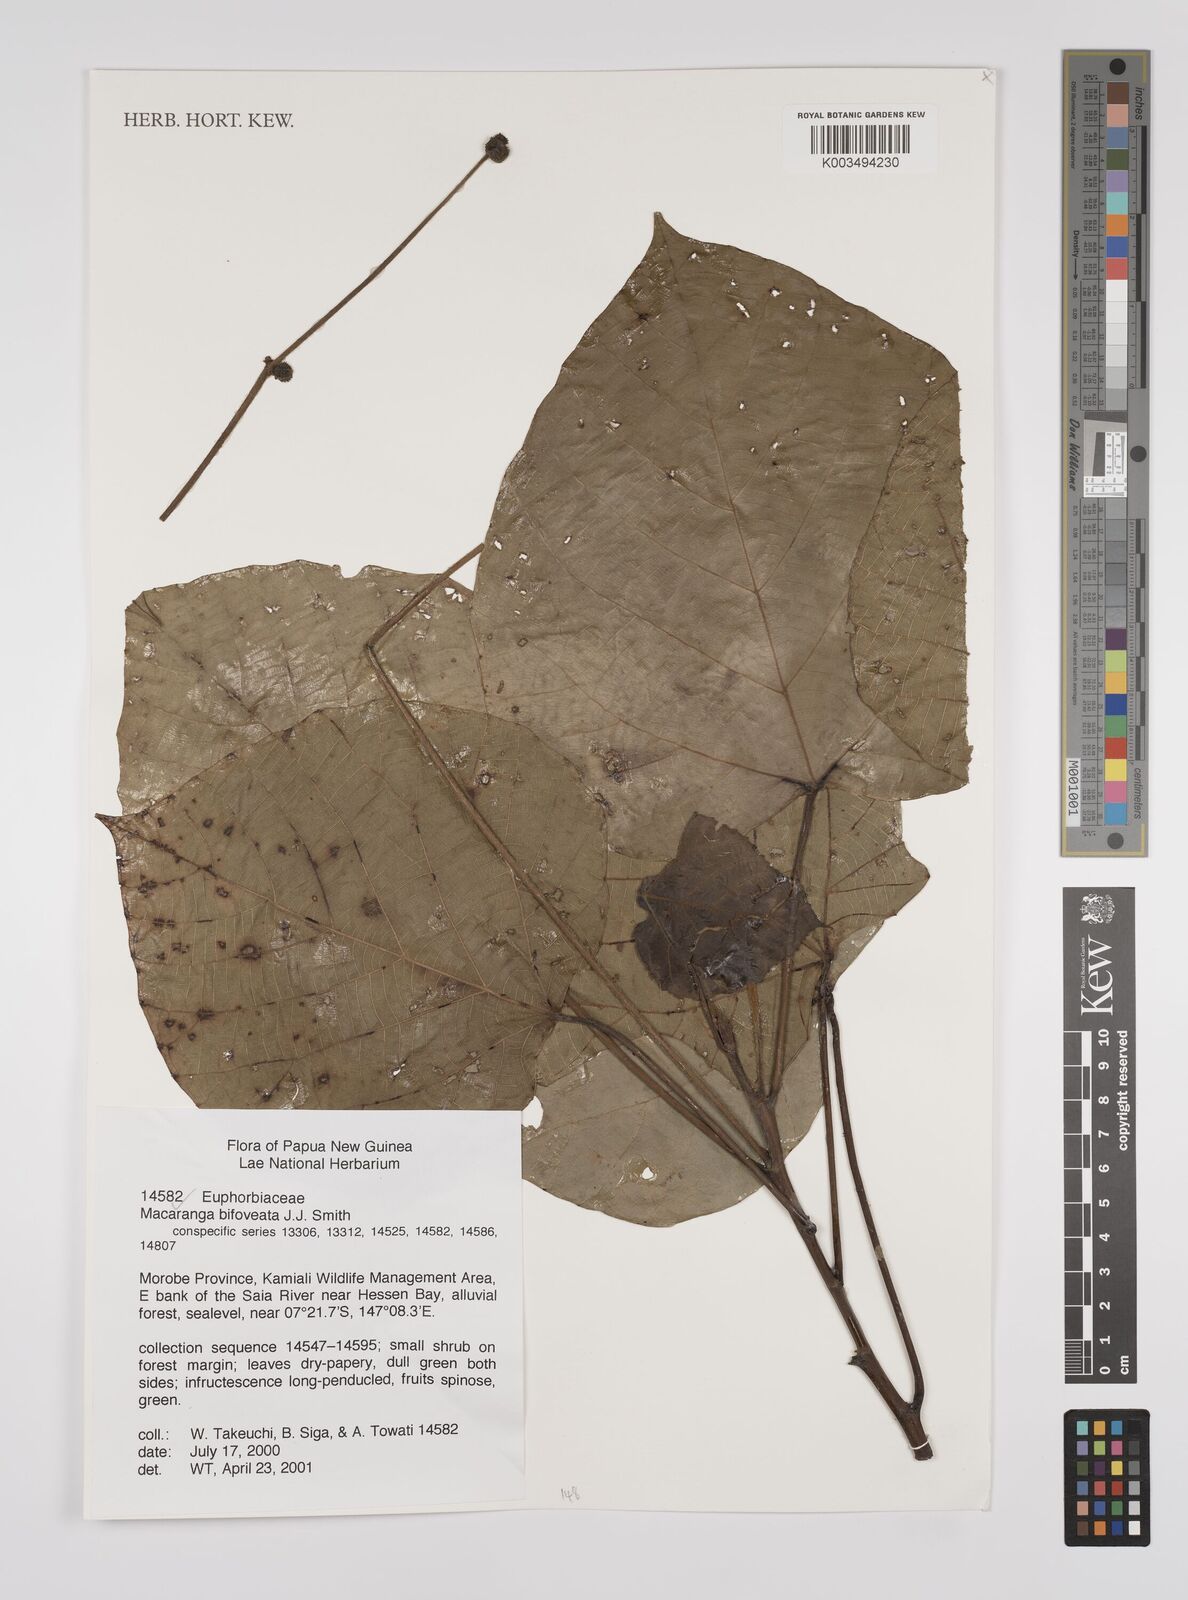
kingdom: Plantae
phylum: Tracheophyta
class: Magnoliopsida
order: Malpighiales
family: Euphorbiaceae
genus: Macaranga
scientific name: Macaranga bifoveata
